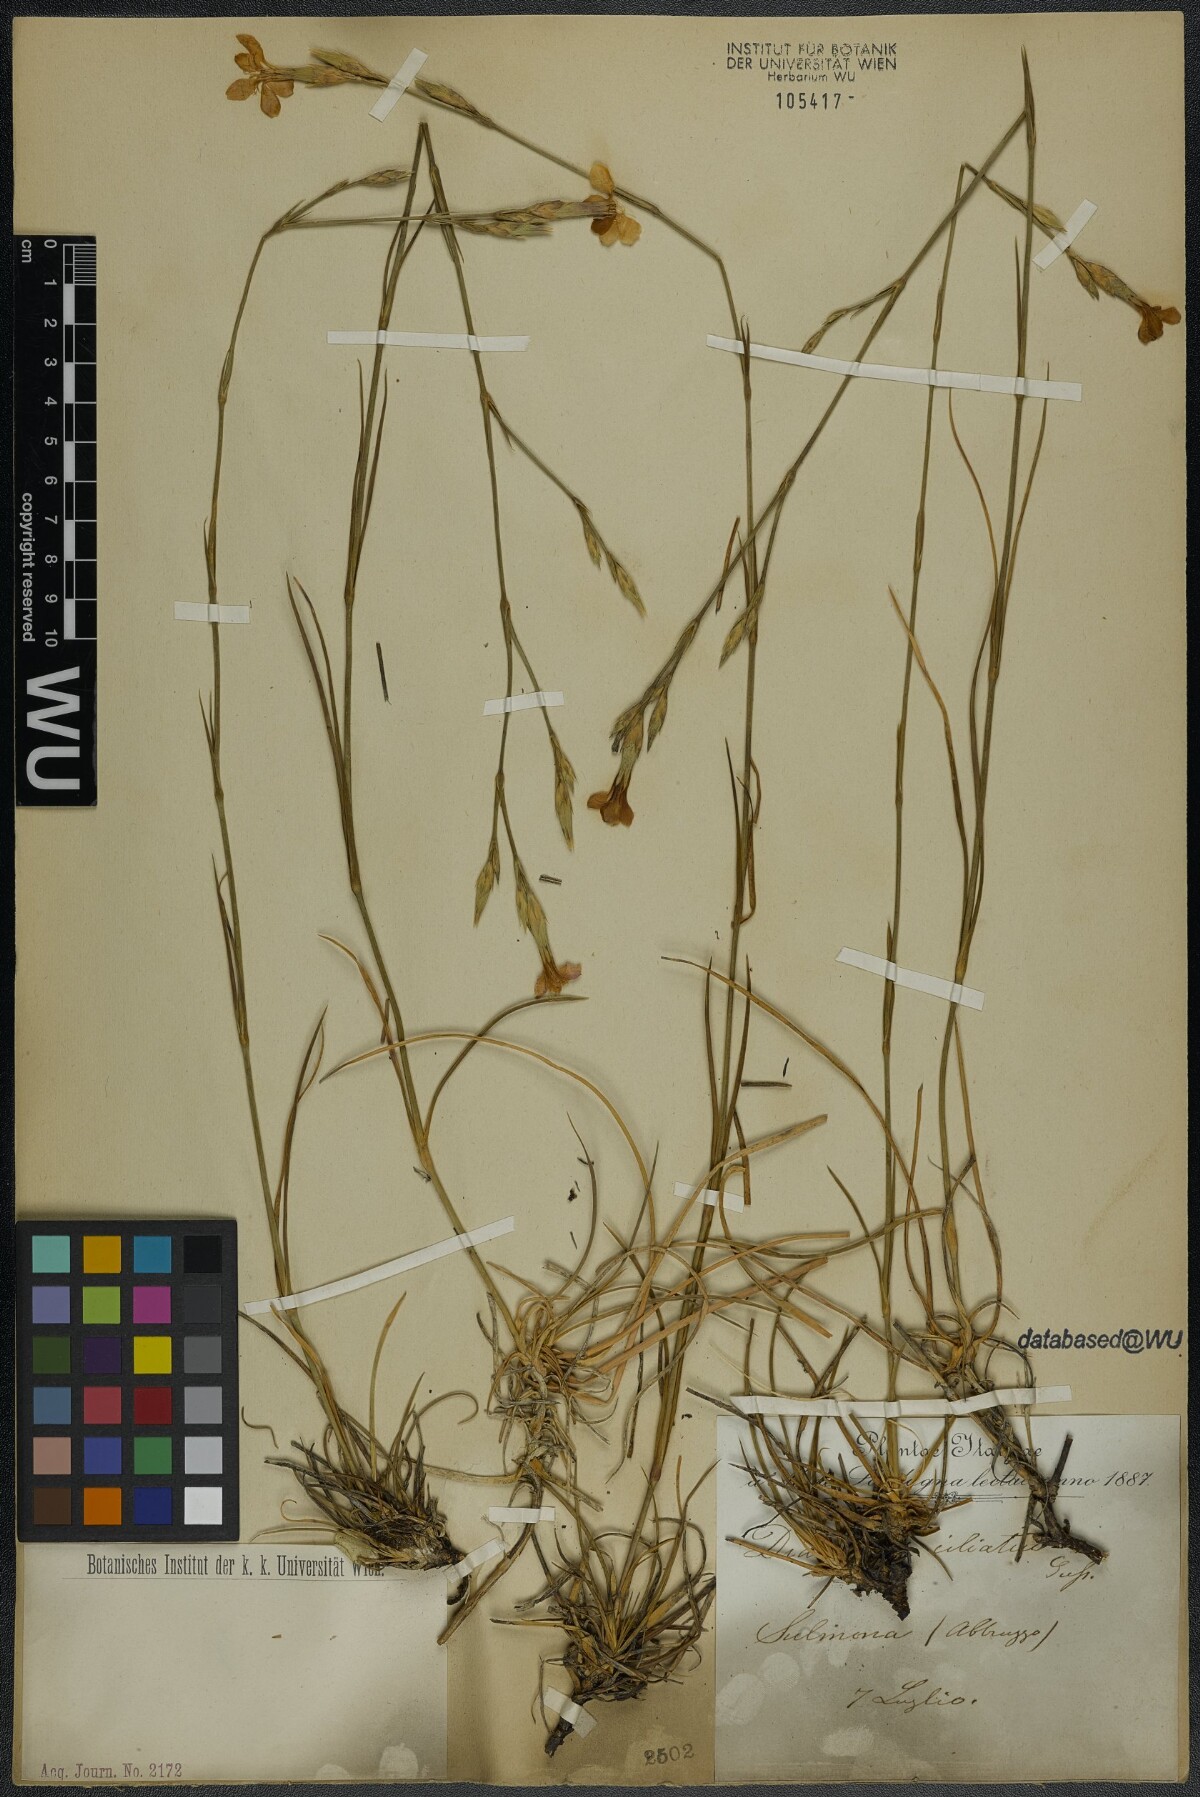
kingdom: Plantae
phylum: Tracheophyta
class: Magnoliopsida
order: Caryophyllales
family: Caryophyllaceae
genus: Dianthus
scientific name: Dianthus ciliatus
